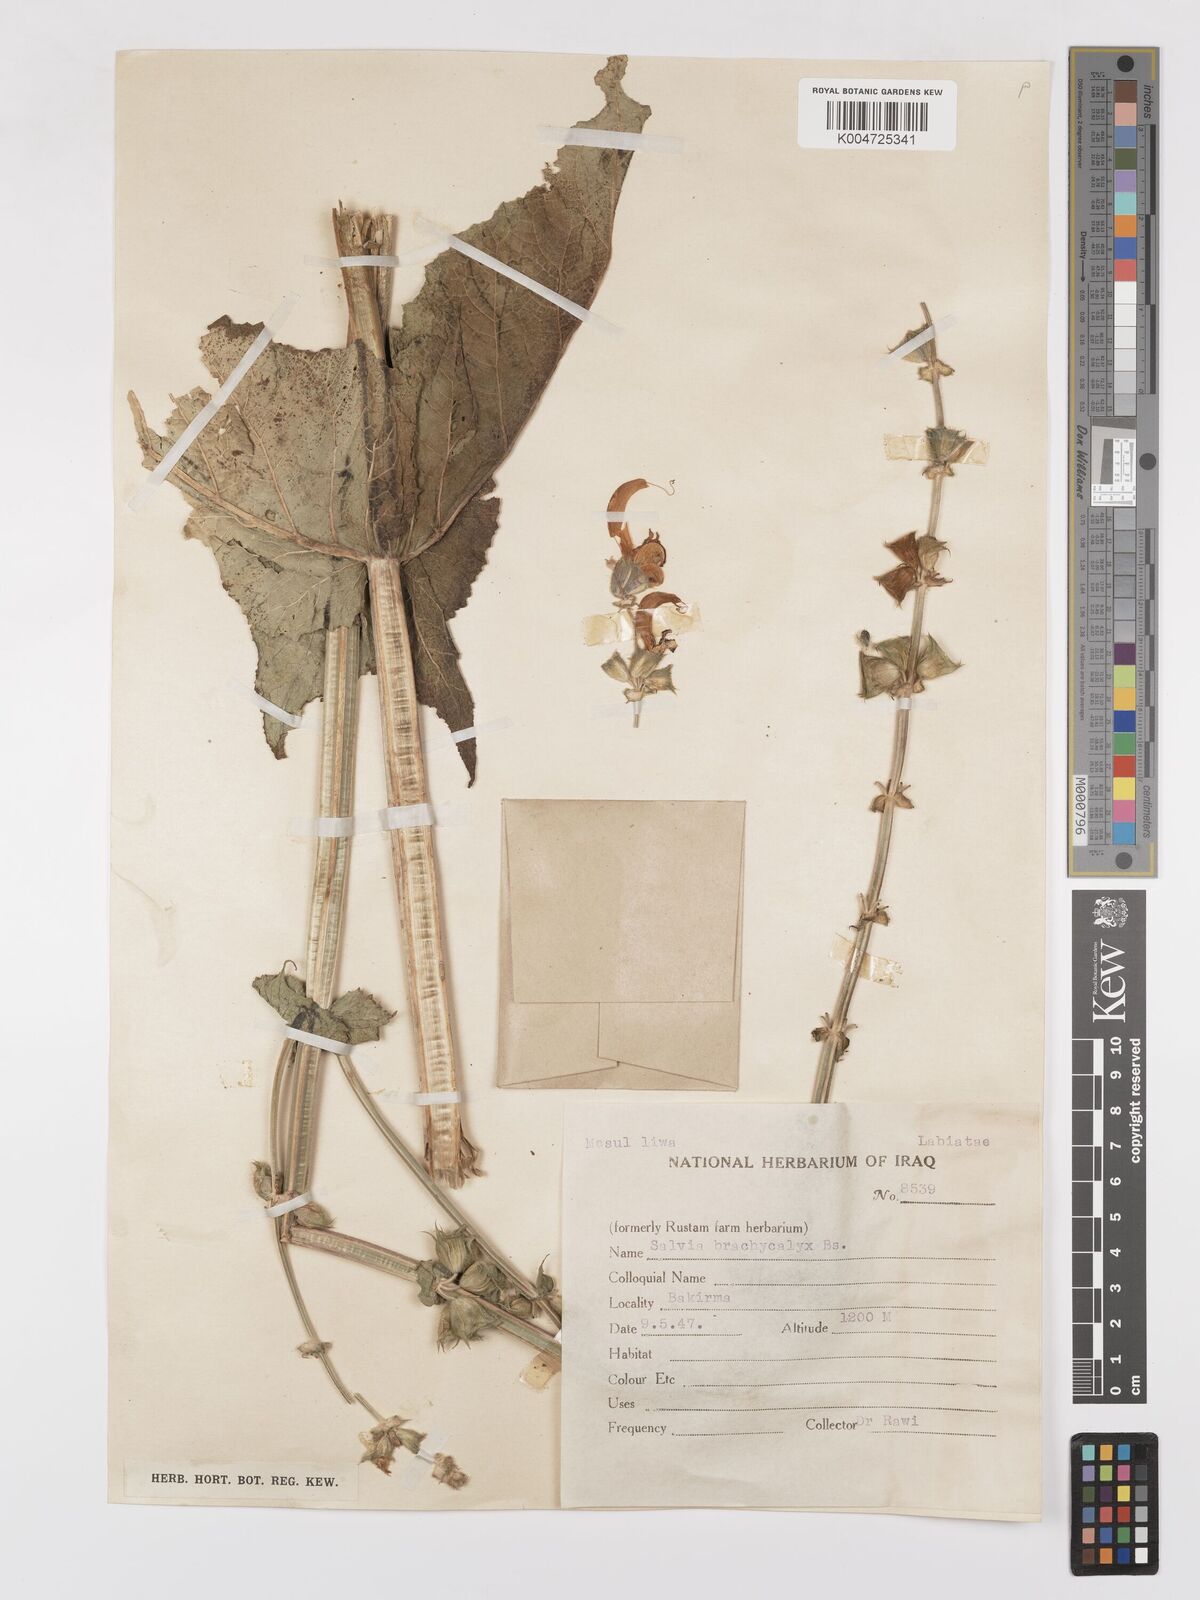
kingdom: Plantae
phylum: Tracheophyta
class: Magnoliopsida
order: Lamiales
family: Lamiaceae
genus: Salvia
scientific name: Salvia indica
